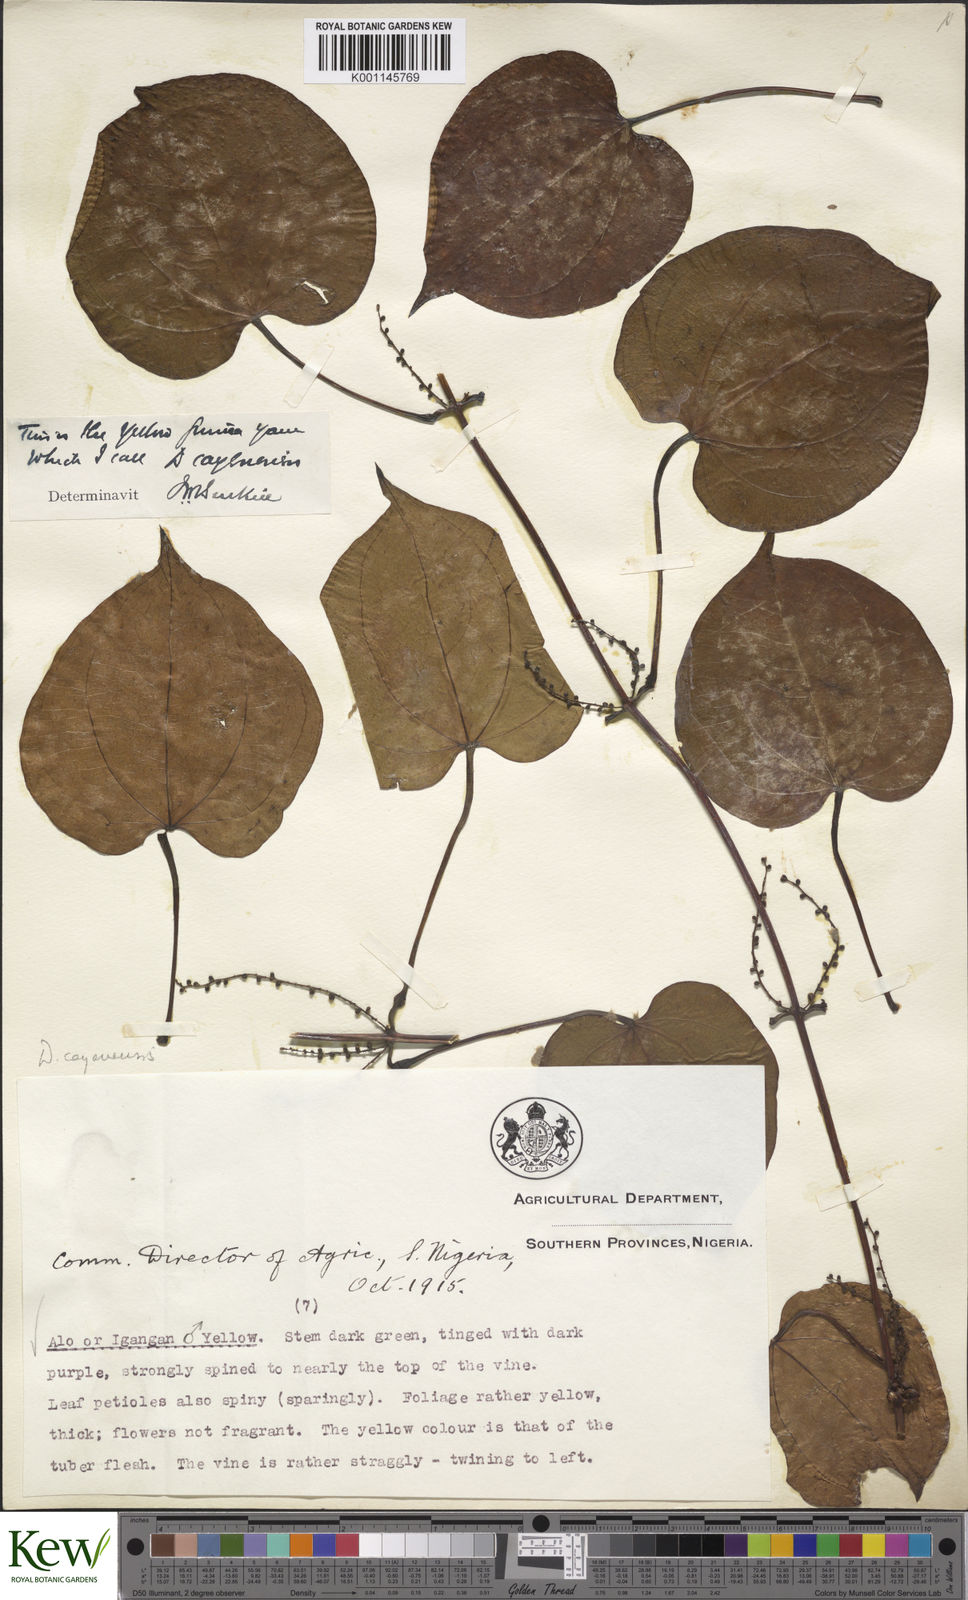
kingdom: Plantae
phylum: Tracheophyta
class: Liliopsida
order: Dioscoreales
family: Dioscoreaceae
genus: Dioscorea
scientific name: Dioscorea cayenensis
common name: Attoto yam
